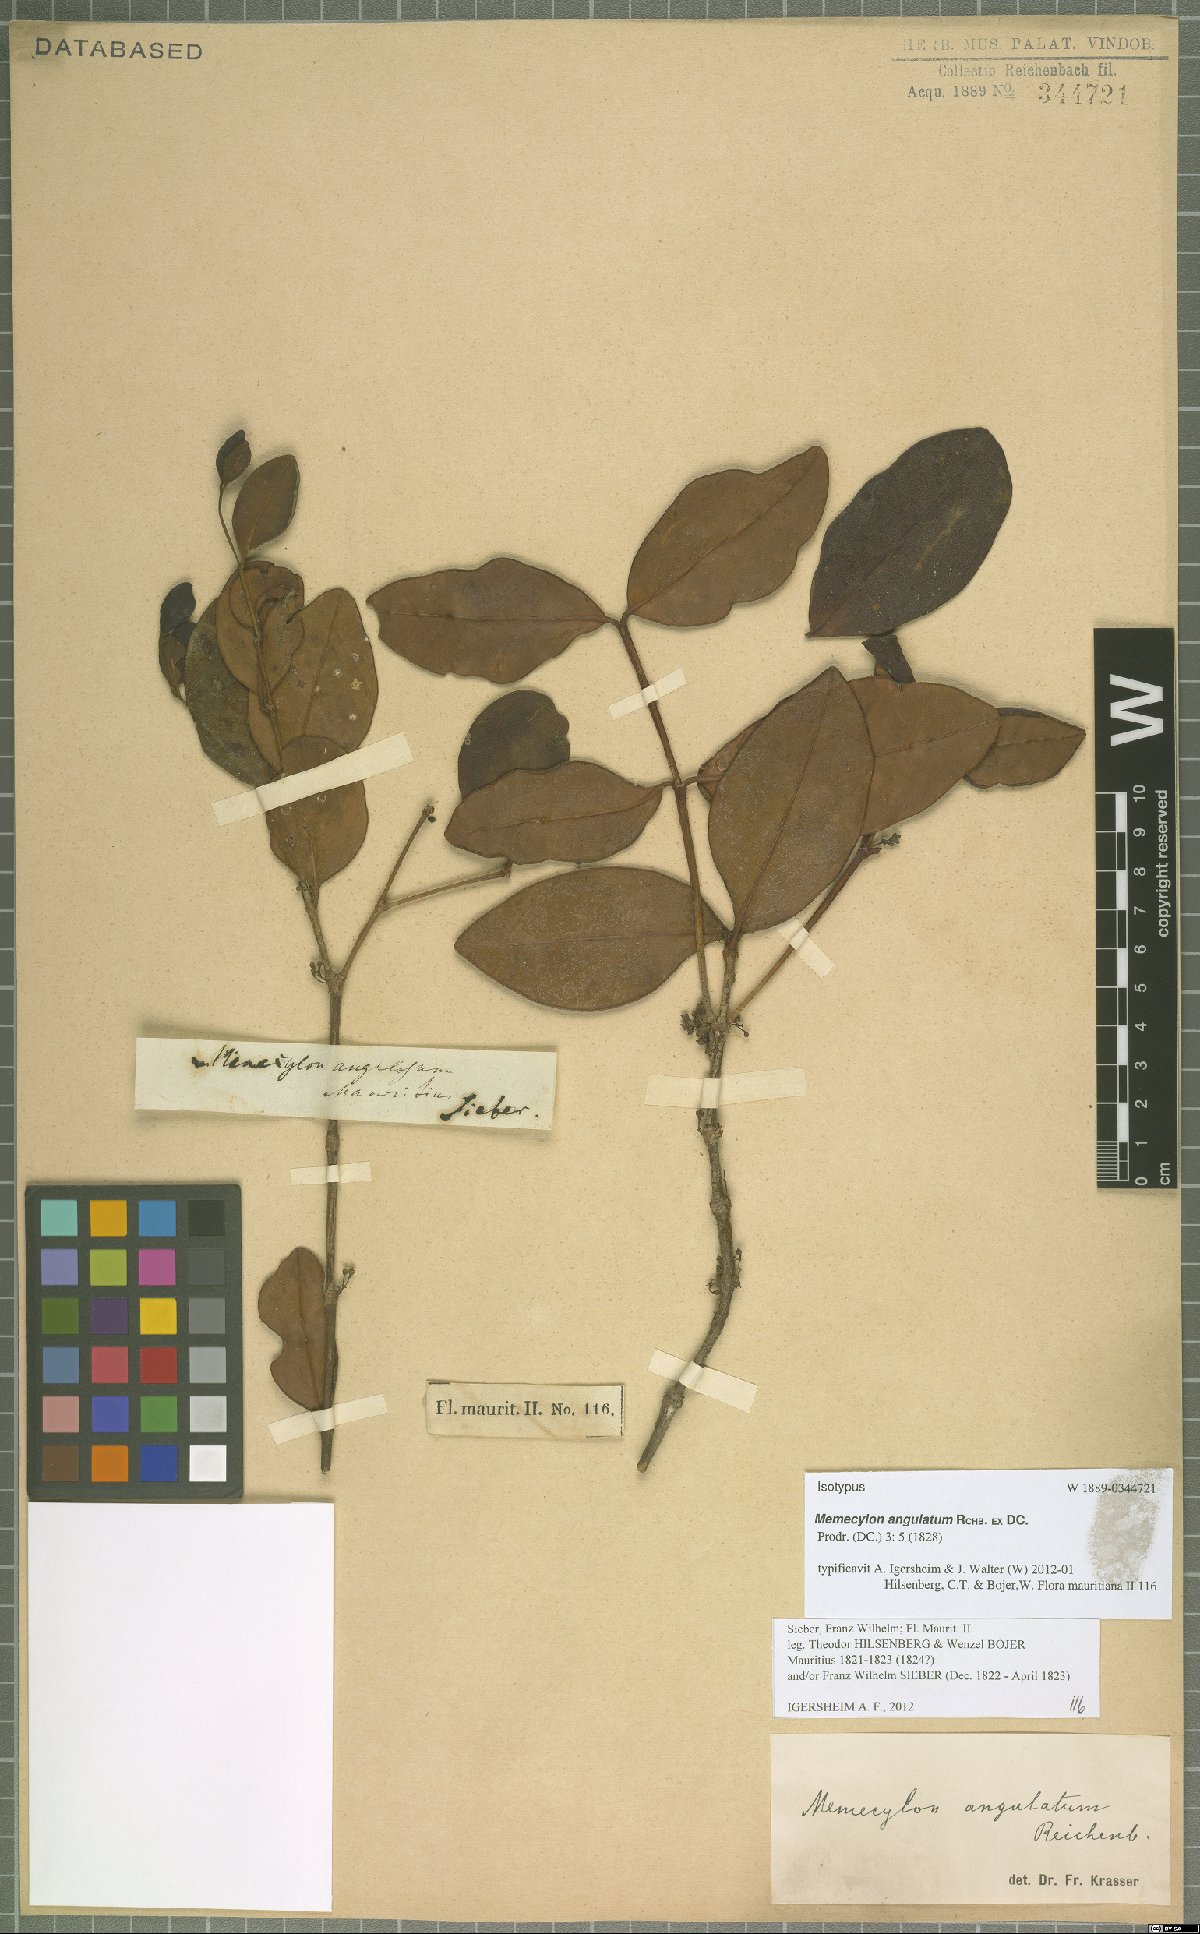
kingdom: Plantae
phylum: Tracheophyta
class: Magnoliopsida
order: Myrtales
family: Melastomataceae
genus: Memecylon
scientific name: Memecylon ovatifolium
